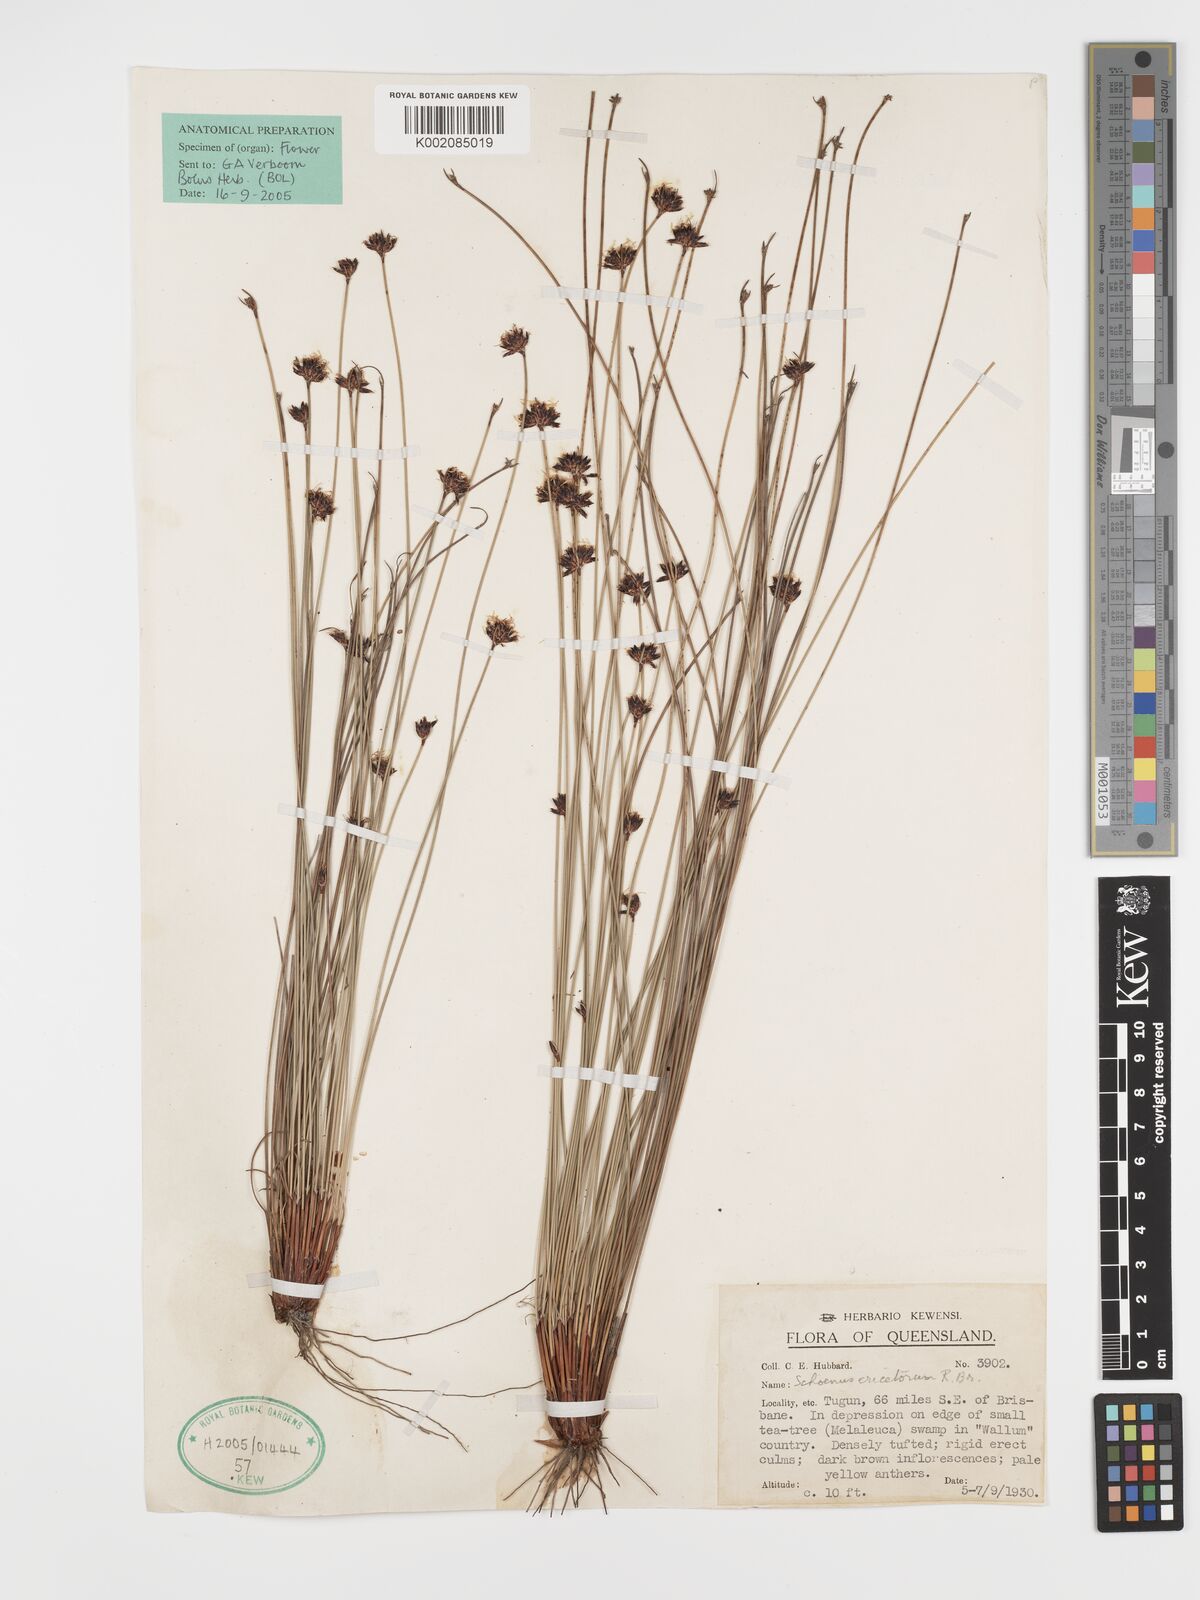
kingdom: Plantae
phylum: Tracheophyta
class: Liliopsida
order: Poales
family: Cyperaceae
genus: Schoenus
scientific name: Schoenus ericetorum
